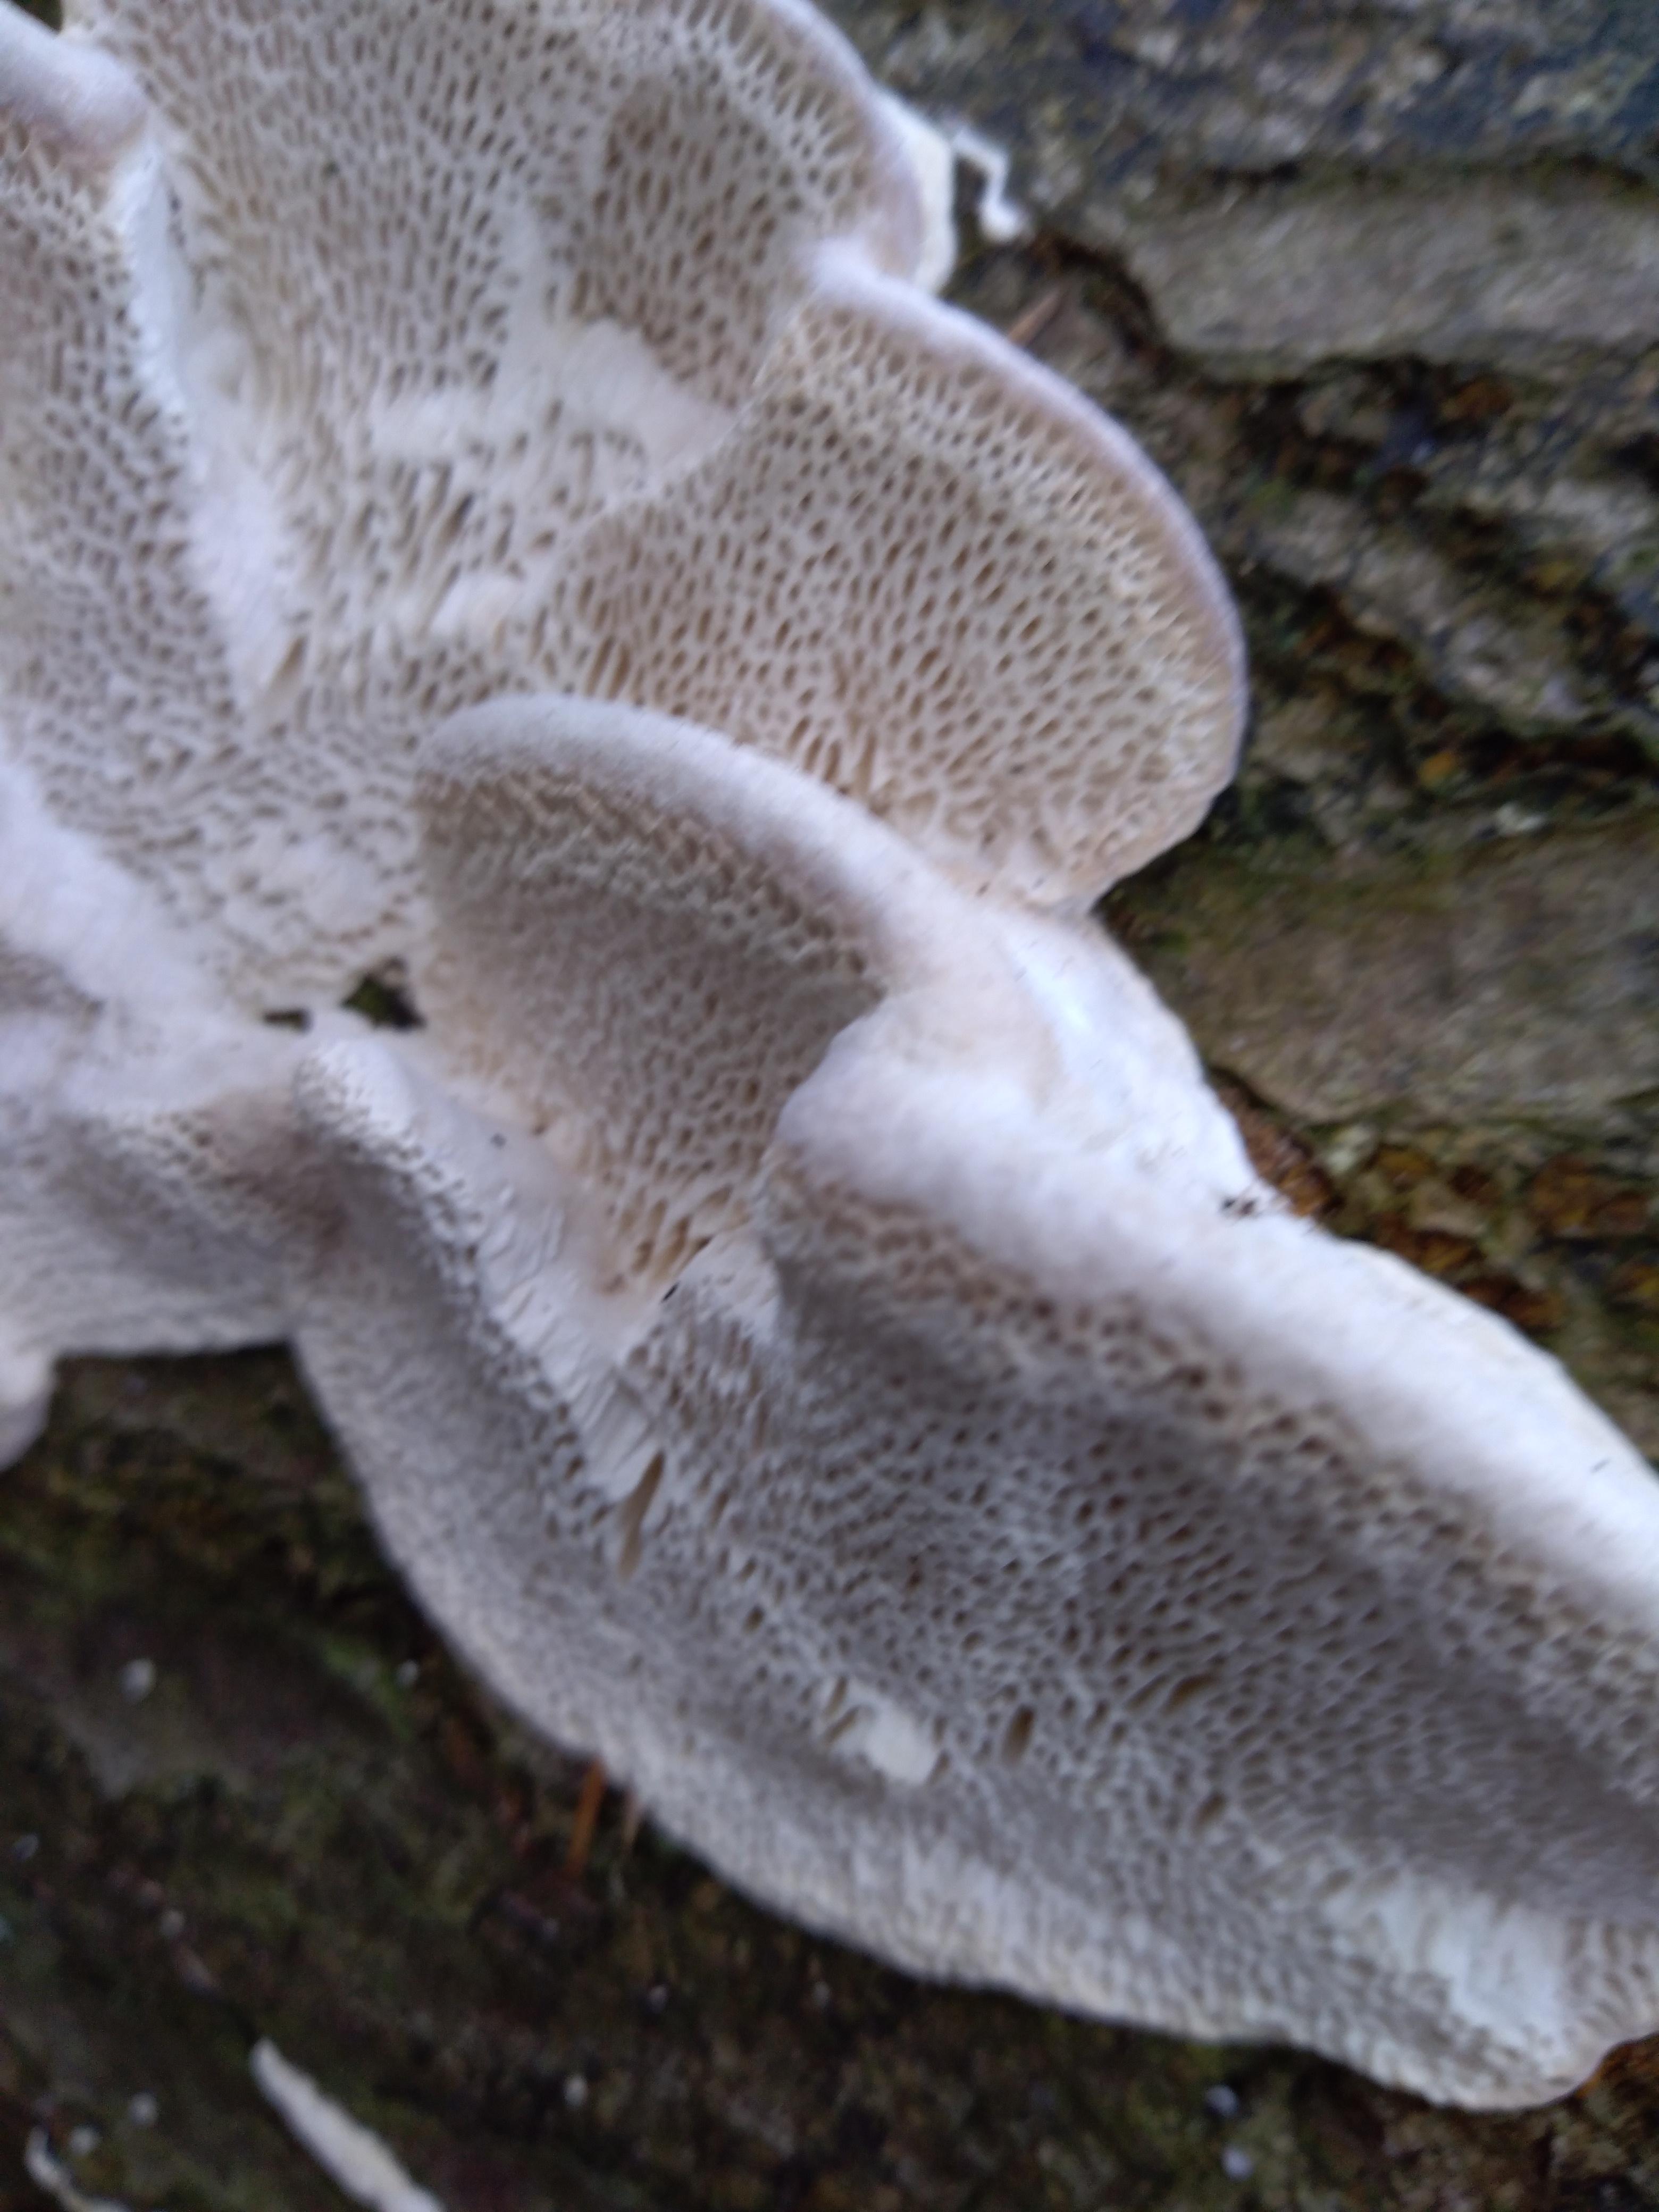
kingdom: Fungi
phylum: Basidiomycota
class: Agaricomycetes
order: Polyporales
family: Polyporaceae
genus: Trametes
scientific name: Trametes gibbosa
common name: puklet læderporesvamp
